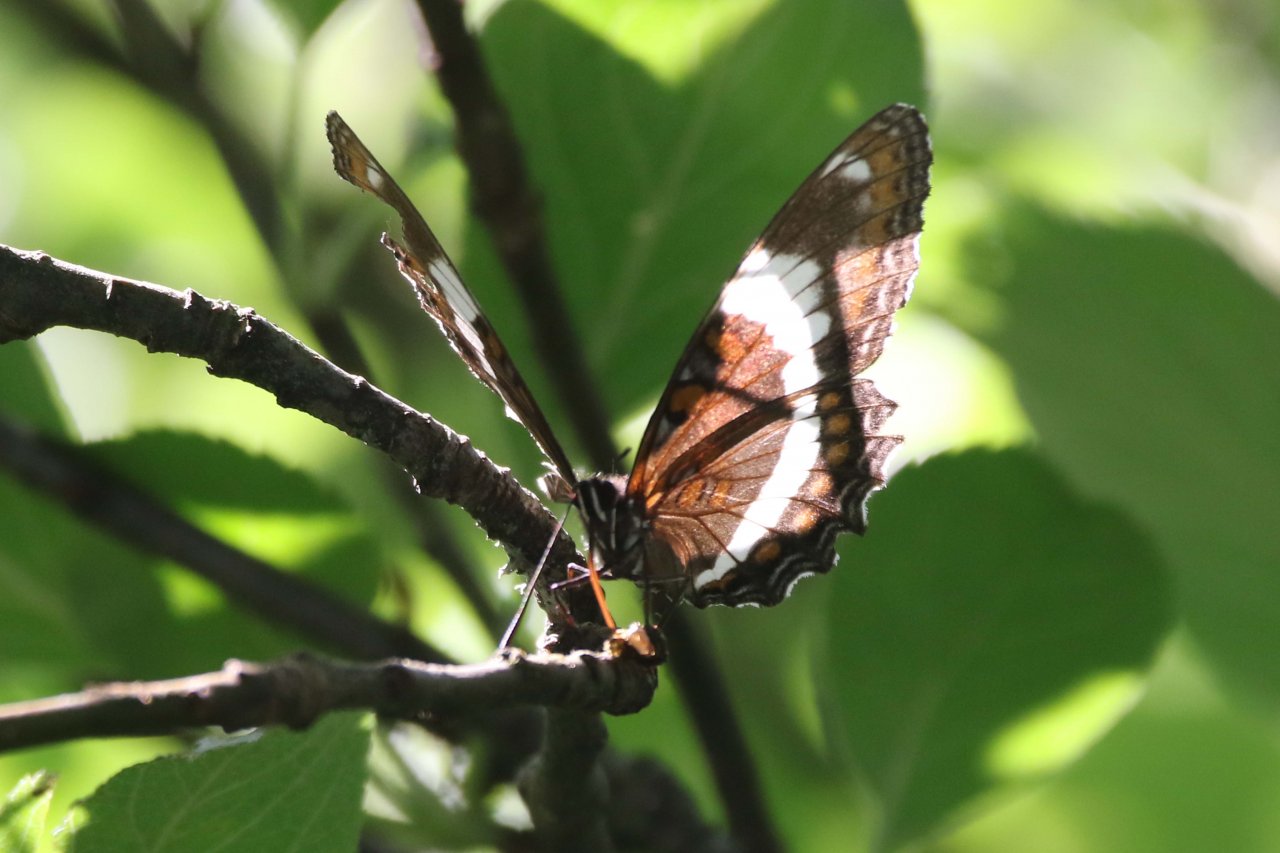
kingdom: Animalia
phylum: Arthropoda
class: Insecta
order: Lepidoptera
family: Nymphalidae
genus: Limenitis
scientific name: Limenitis arthemis
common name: Red-spotted Admiral
